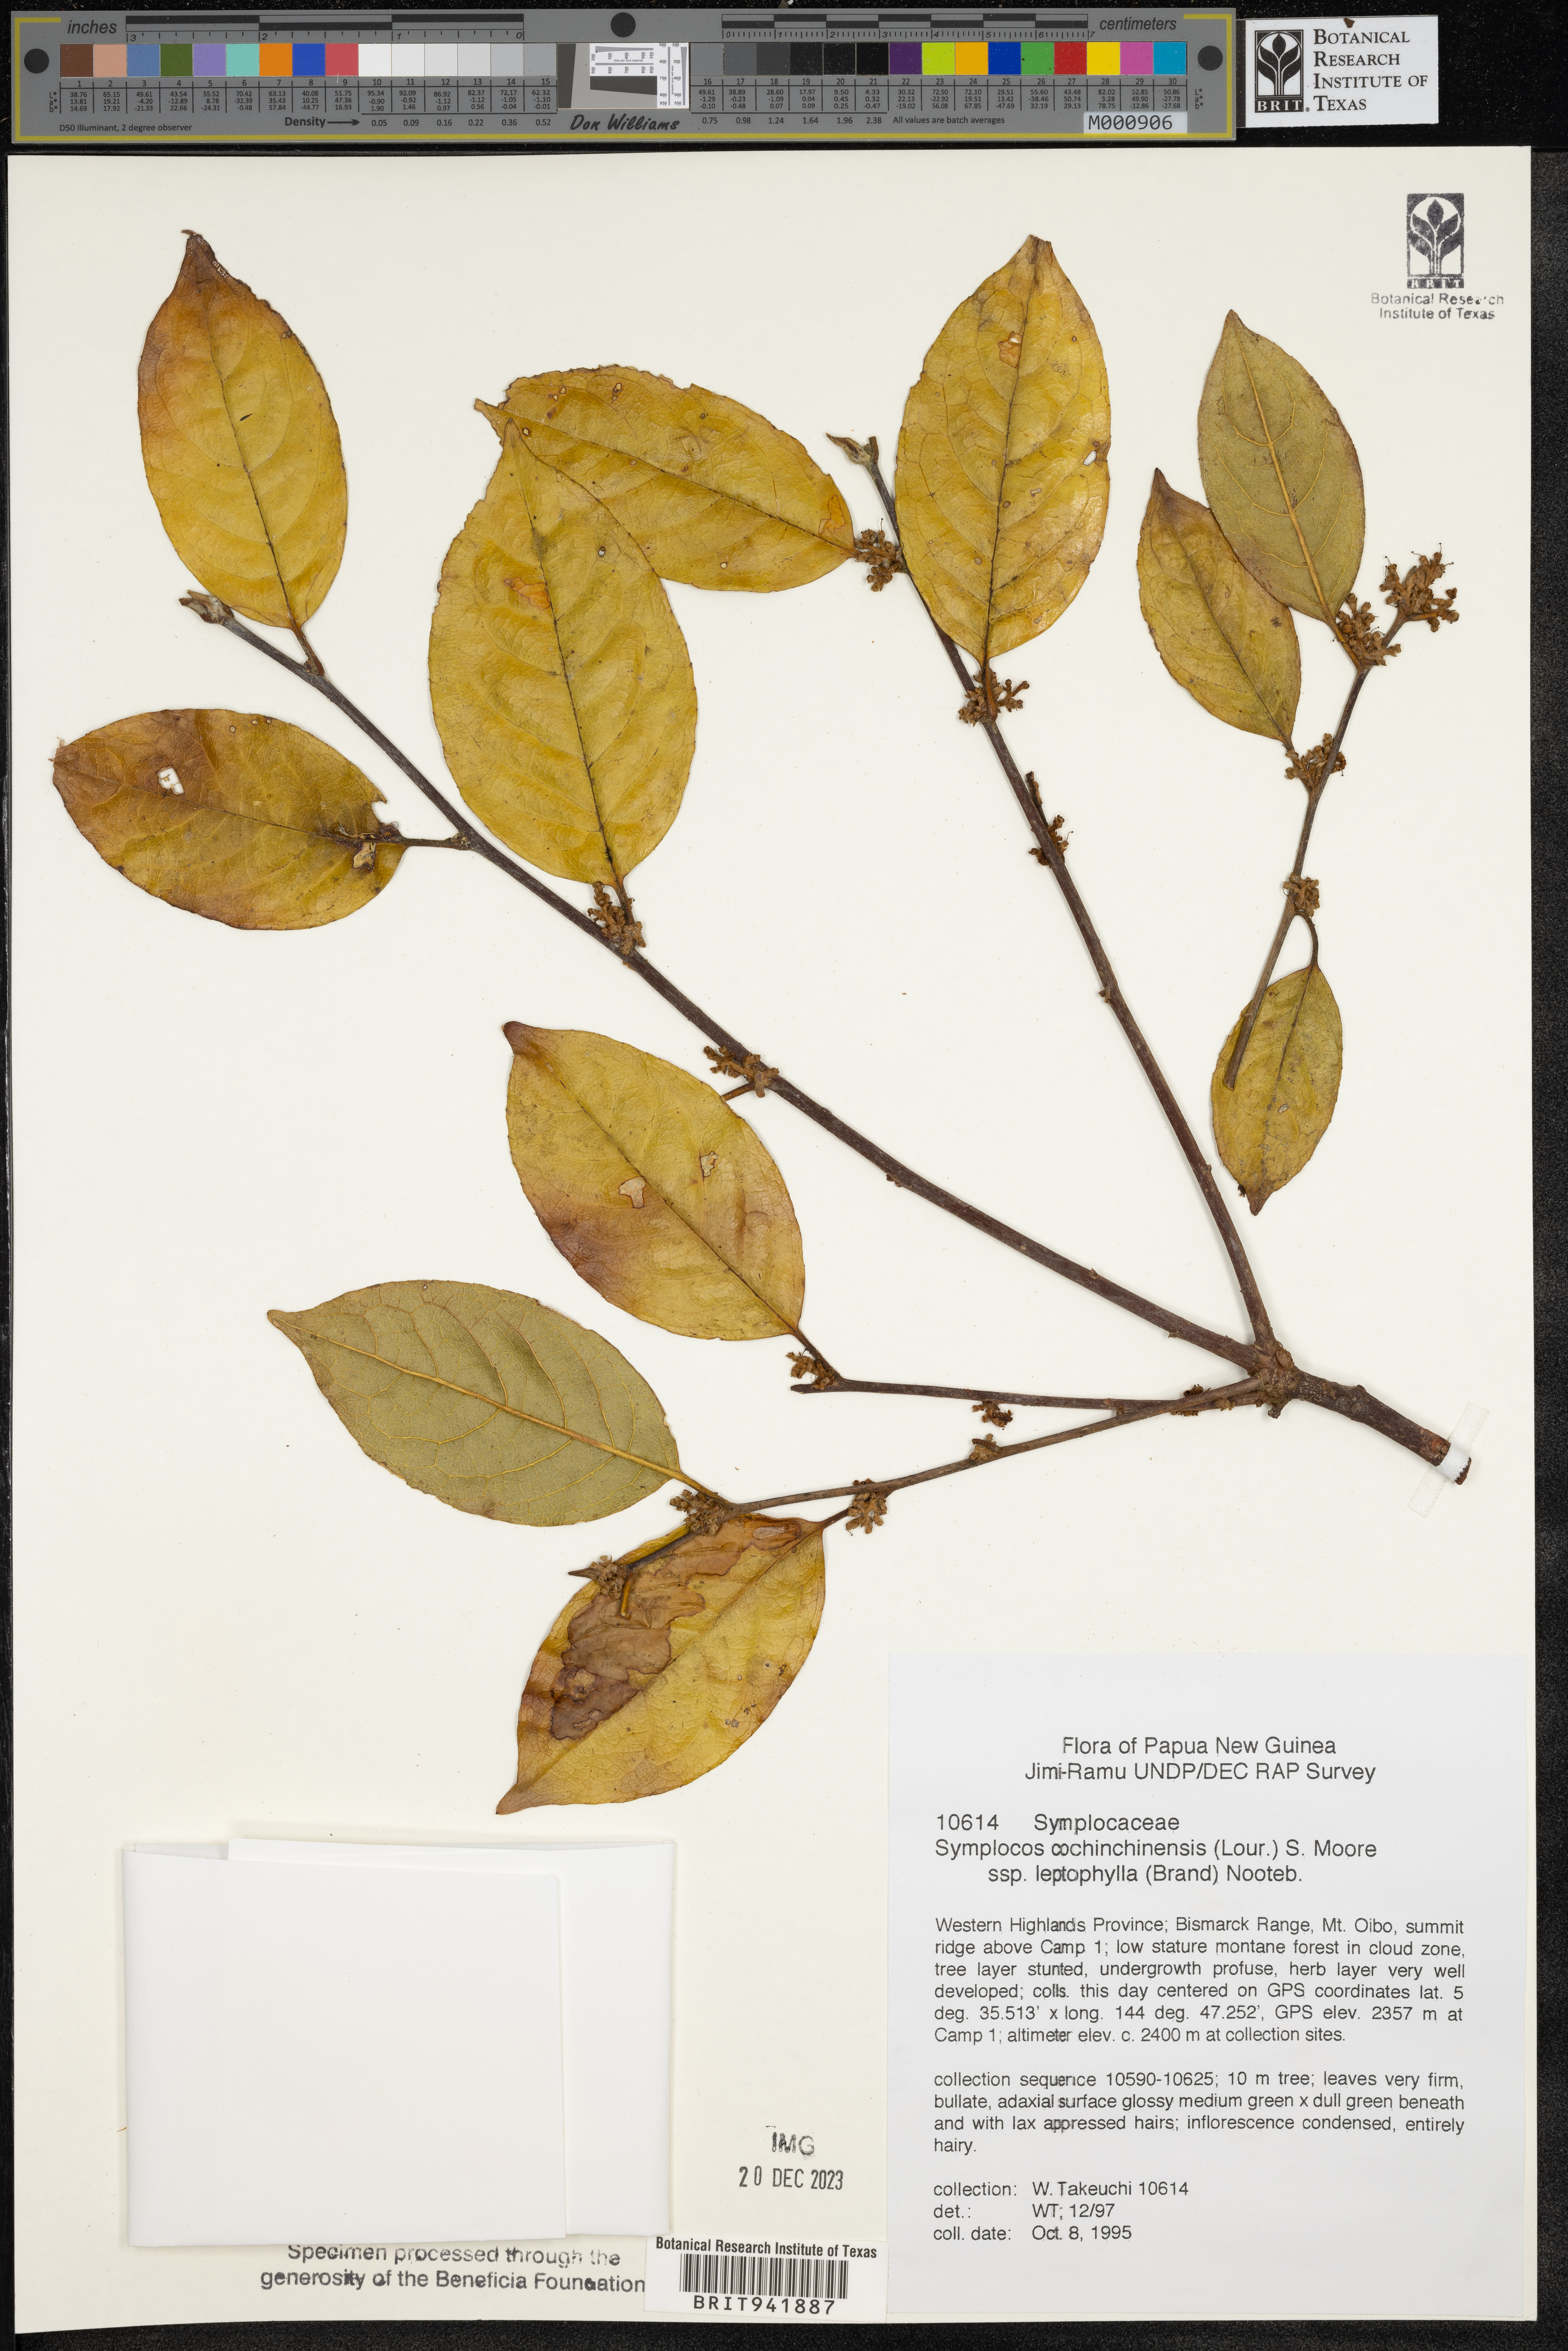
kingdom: Plantae
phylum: Tracheophyta
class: Magnoliopsida
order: Ericales
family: Symplocaceae
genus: Symplocos
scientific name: Symplocos cochinchinensis
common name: Buff hazelwood
